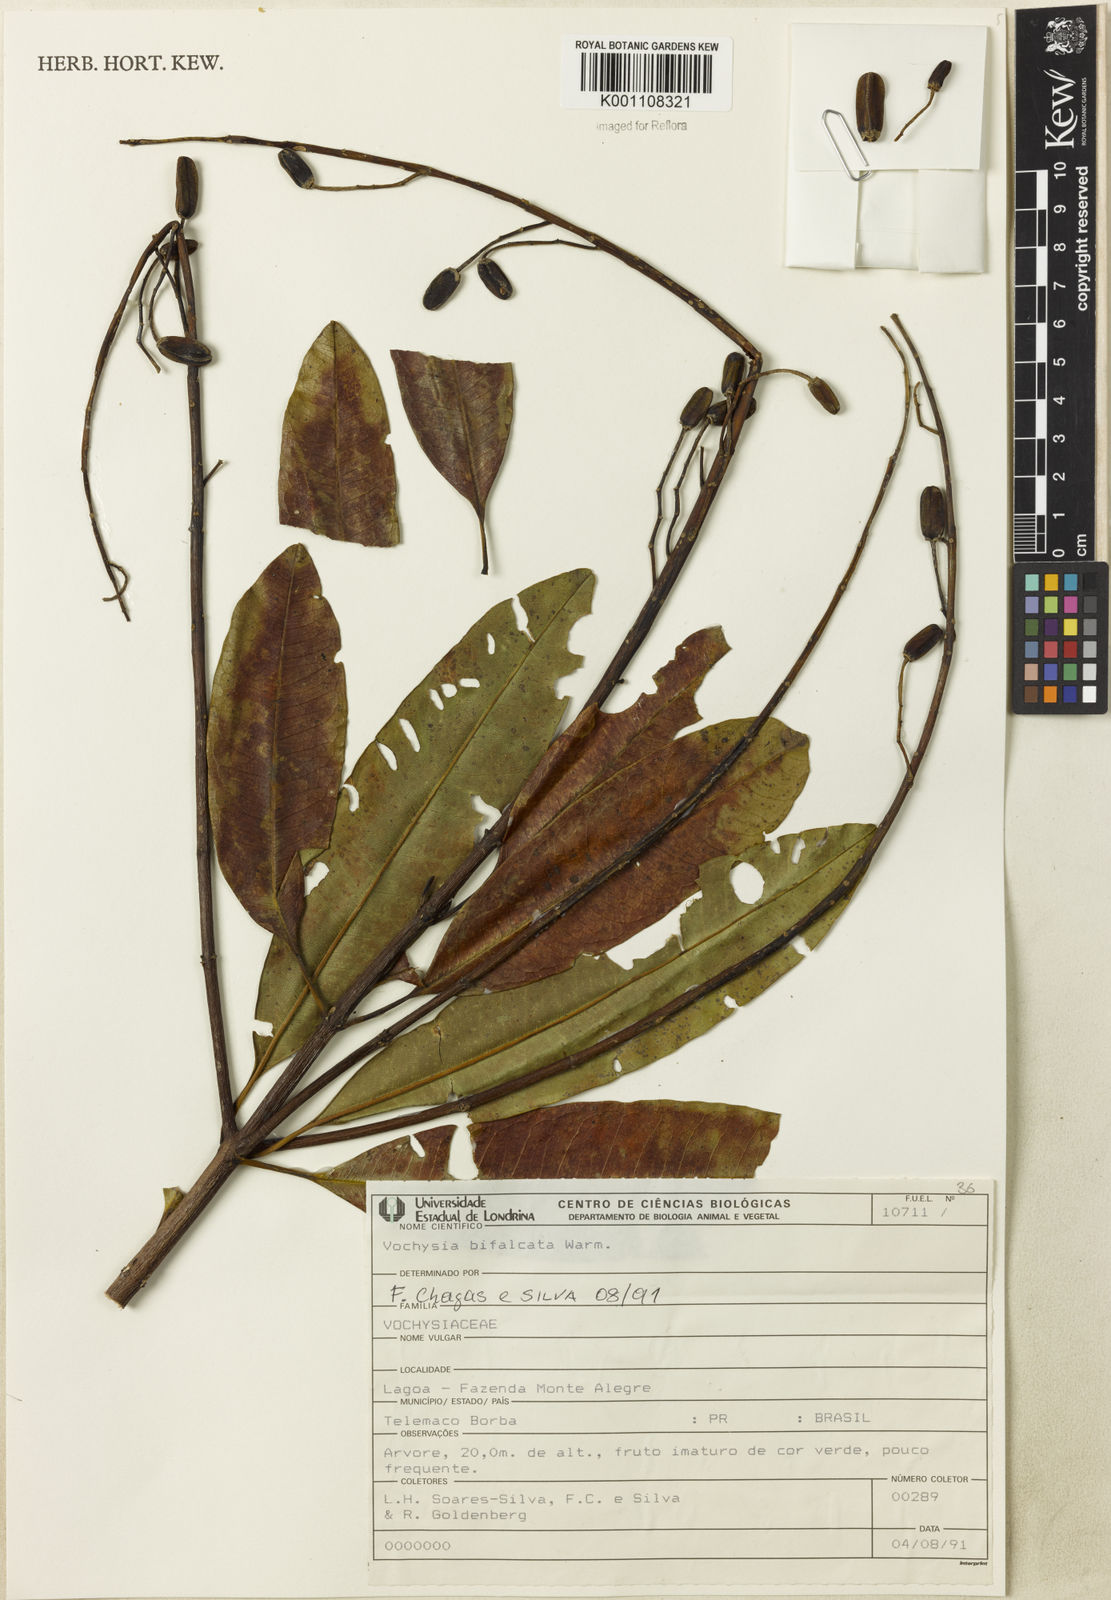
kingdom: Plantae
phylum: Tracheophyta
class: Magnoliopsida
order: Myrtales
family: Vochysiaceae
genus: Vochysia
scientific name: Vochysia bifalcata
